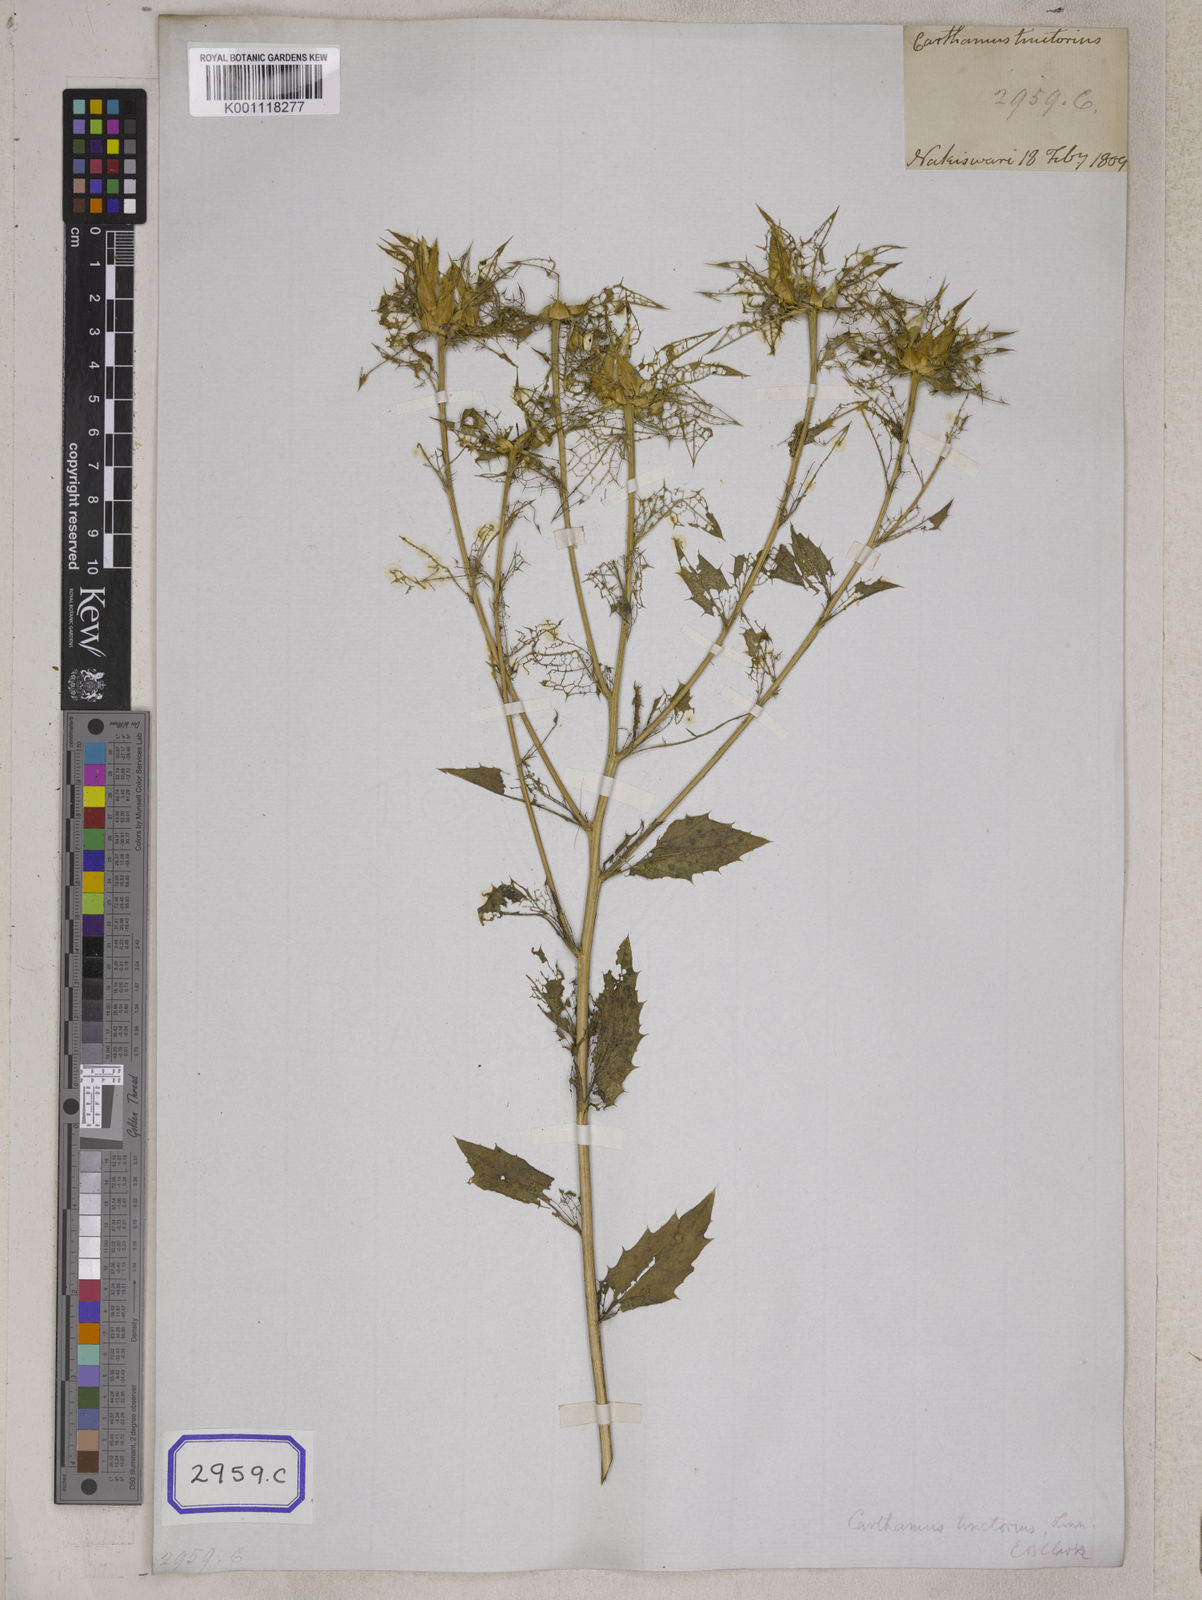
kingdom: Plantae
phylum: Tracheophyta
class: Magnoliopsida
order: Asterales
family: Asteraceae
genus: Carthamus
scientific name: Carthamus tinctorius
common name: Safflower
